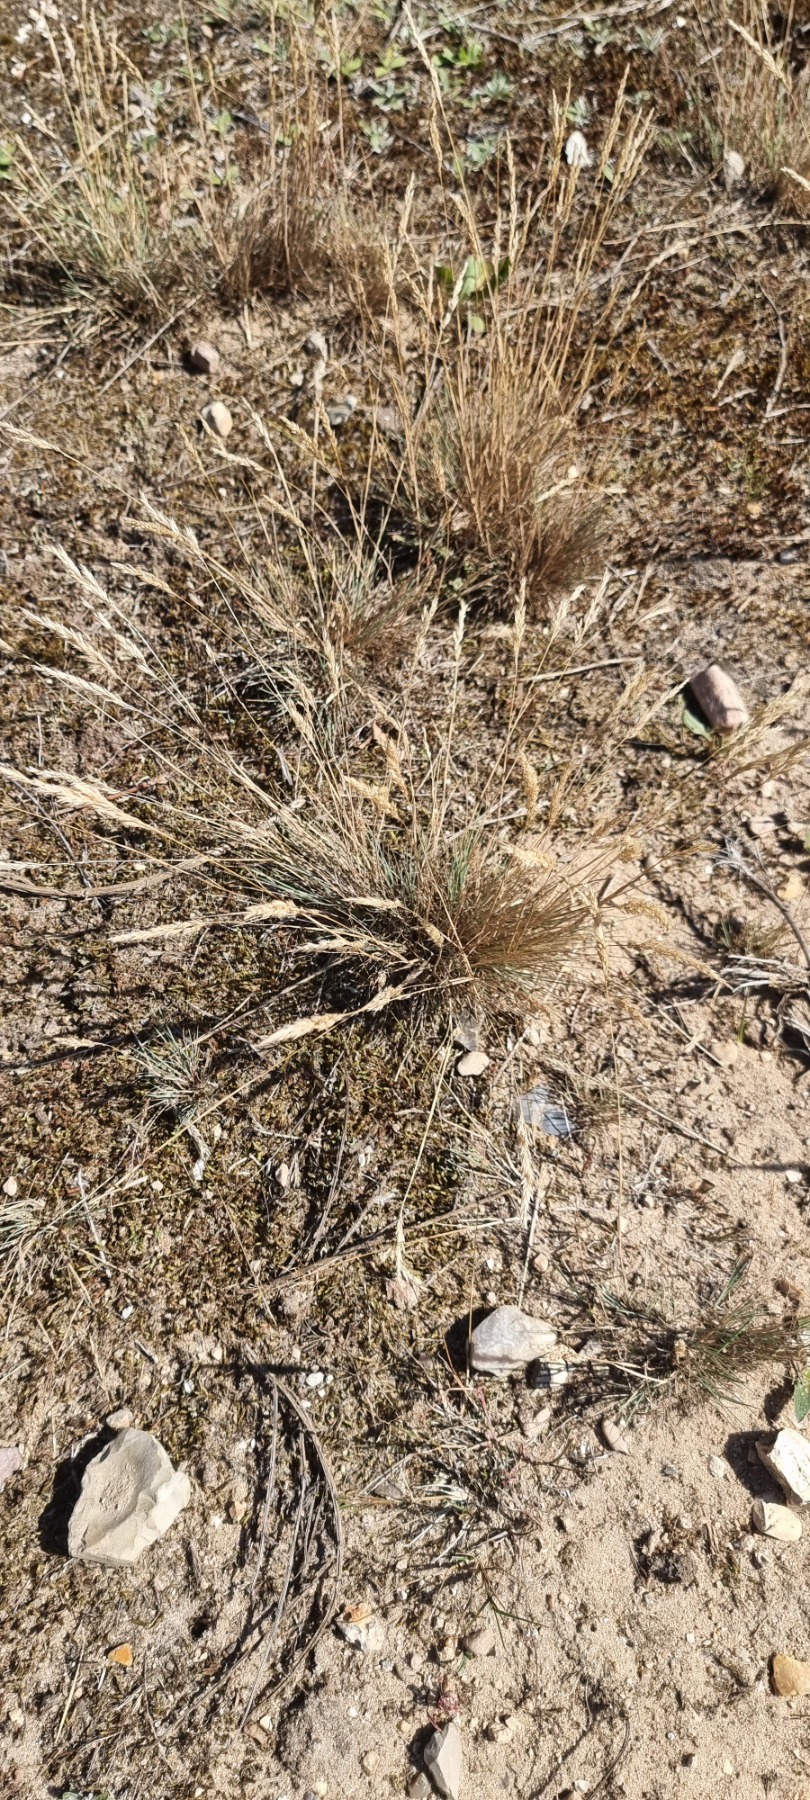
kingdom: Plantae
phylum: Tracheophyta
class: Liliopsida
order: Poales
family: Poaceae
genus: Corynephorus
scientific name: Corynephorus canescens
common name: Sandskæg
